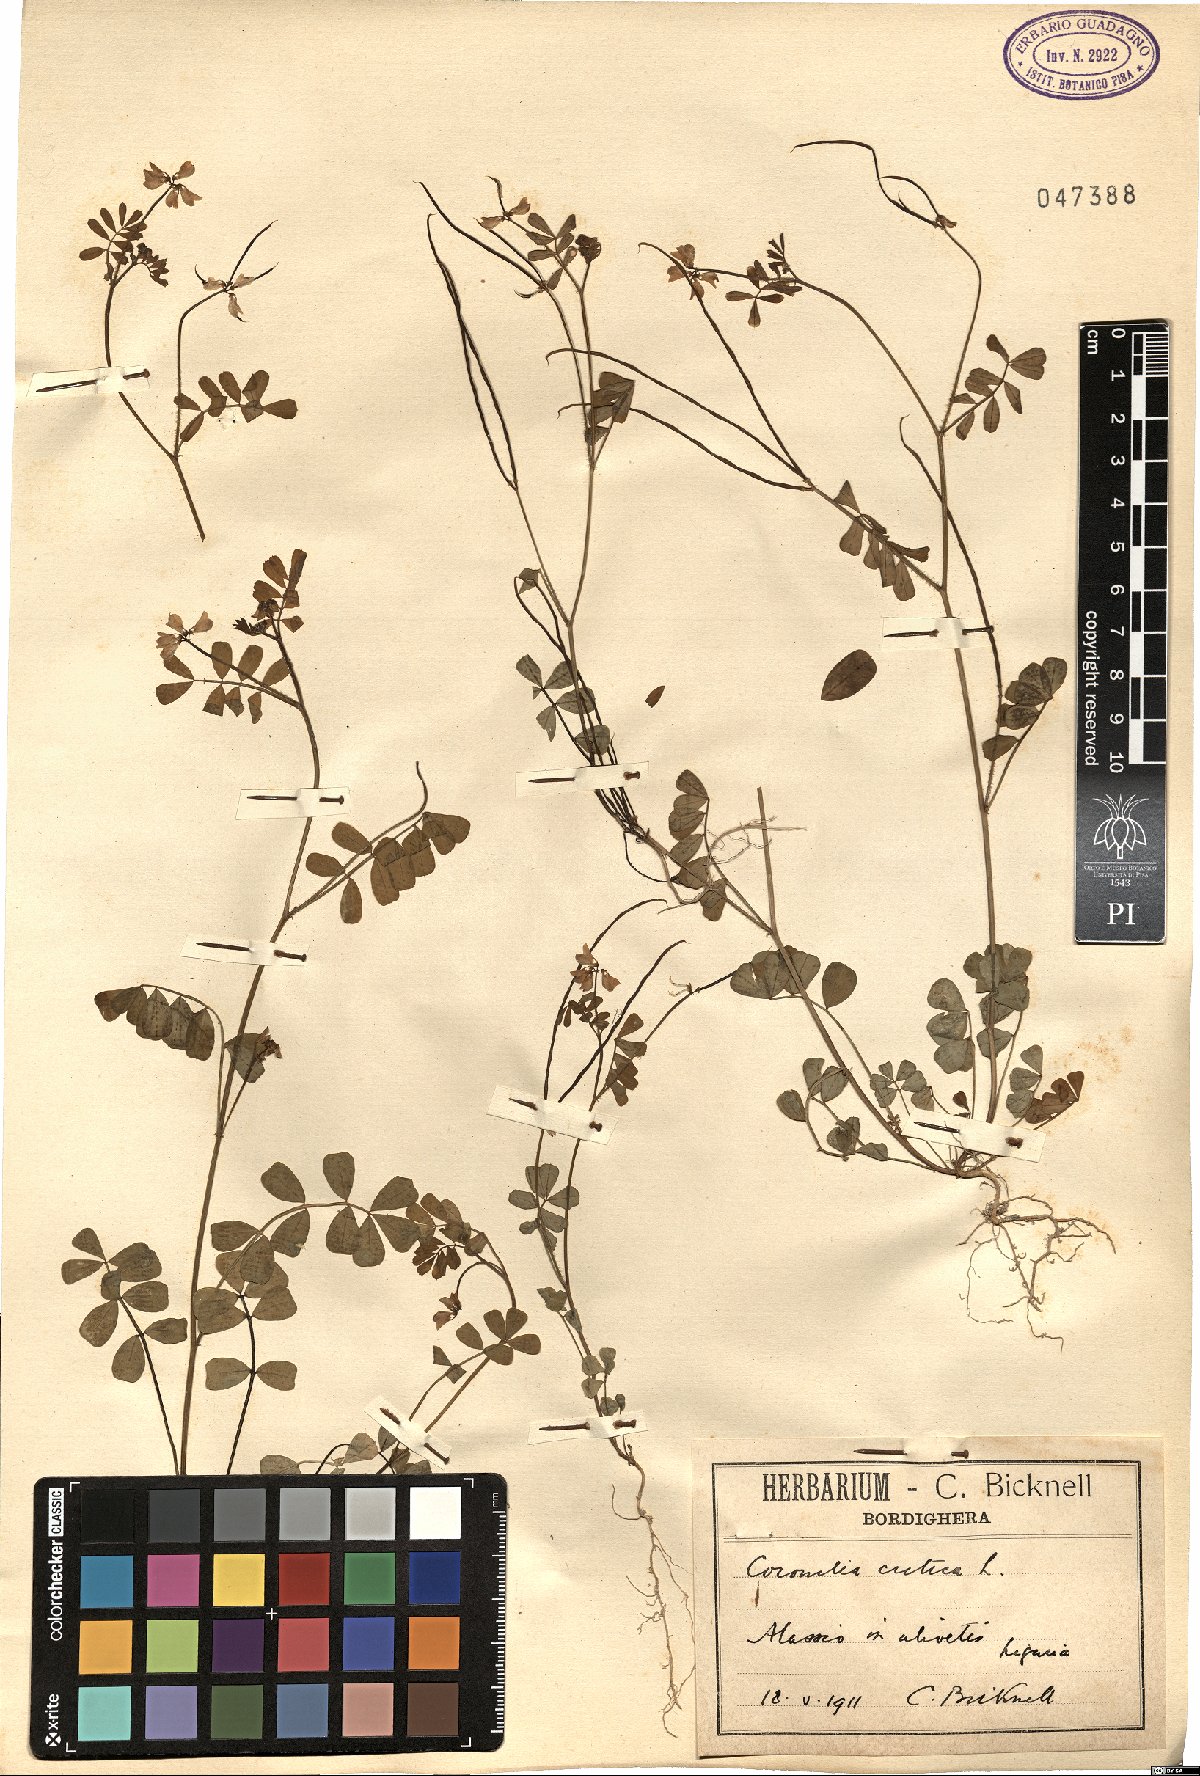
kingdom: Plantae
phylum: Tracheophyta
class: Magnoliopsida
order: Fabales
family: Fabaceae
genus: Coronilla
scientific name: Coronilla cretica
